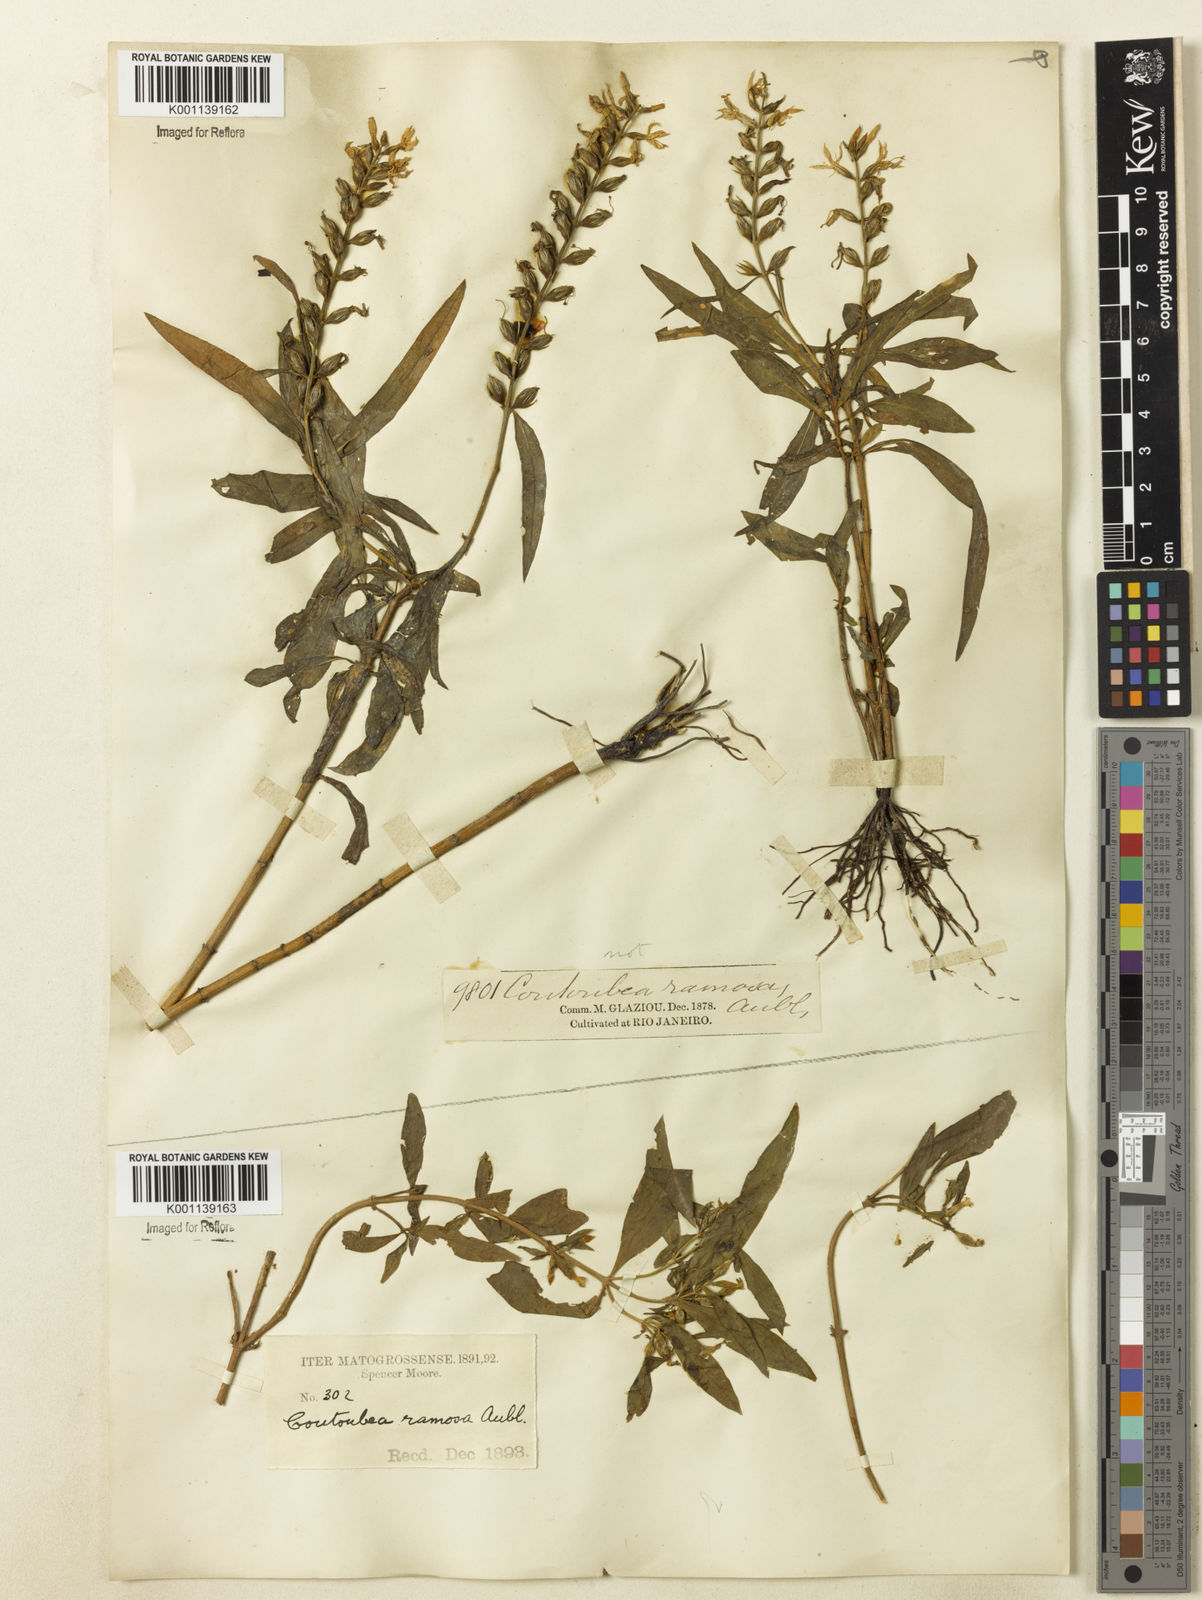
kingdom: Plantae
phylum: Tracheophyta
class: Magnoliopsida
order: Gentianales
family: Gentianaceae
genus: Coutoubea
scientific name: Coutoubea ramosa
